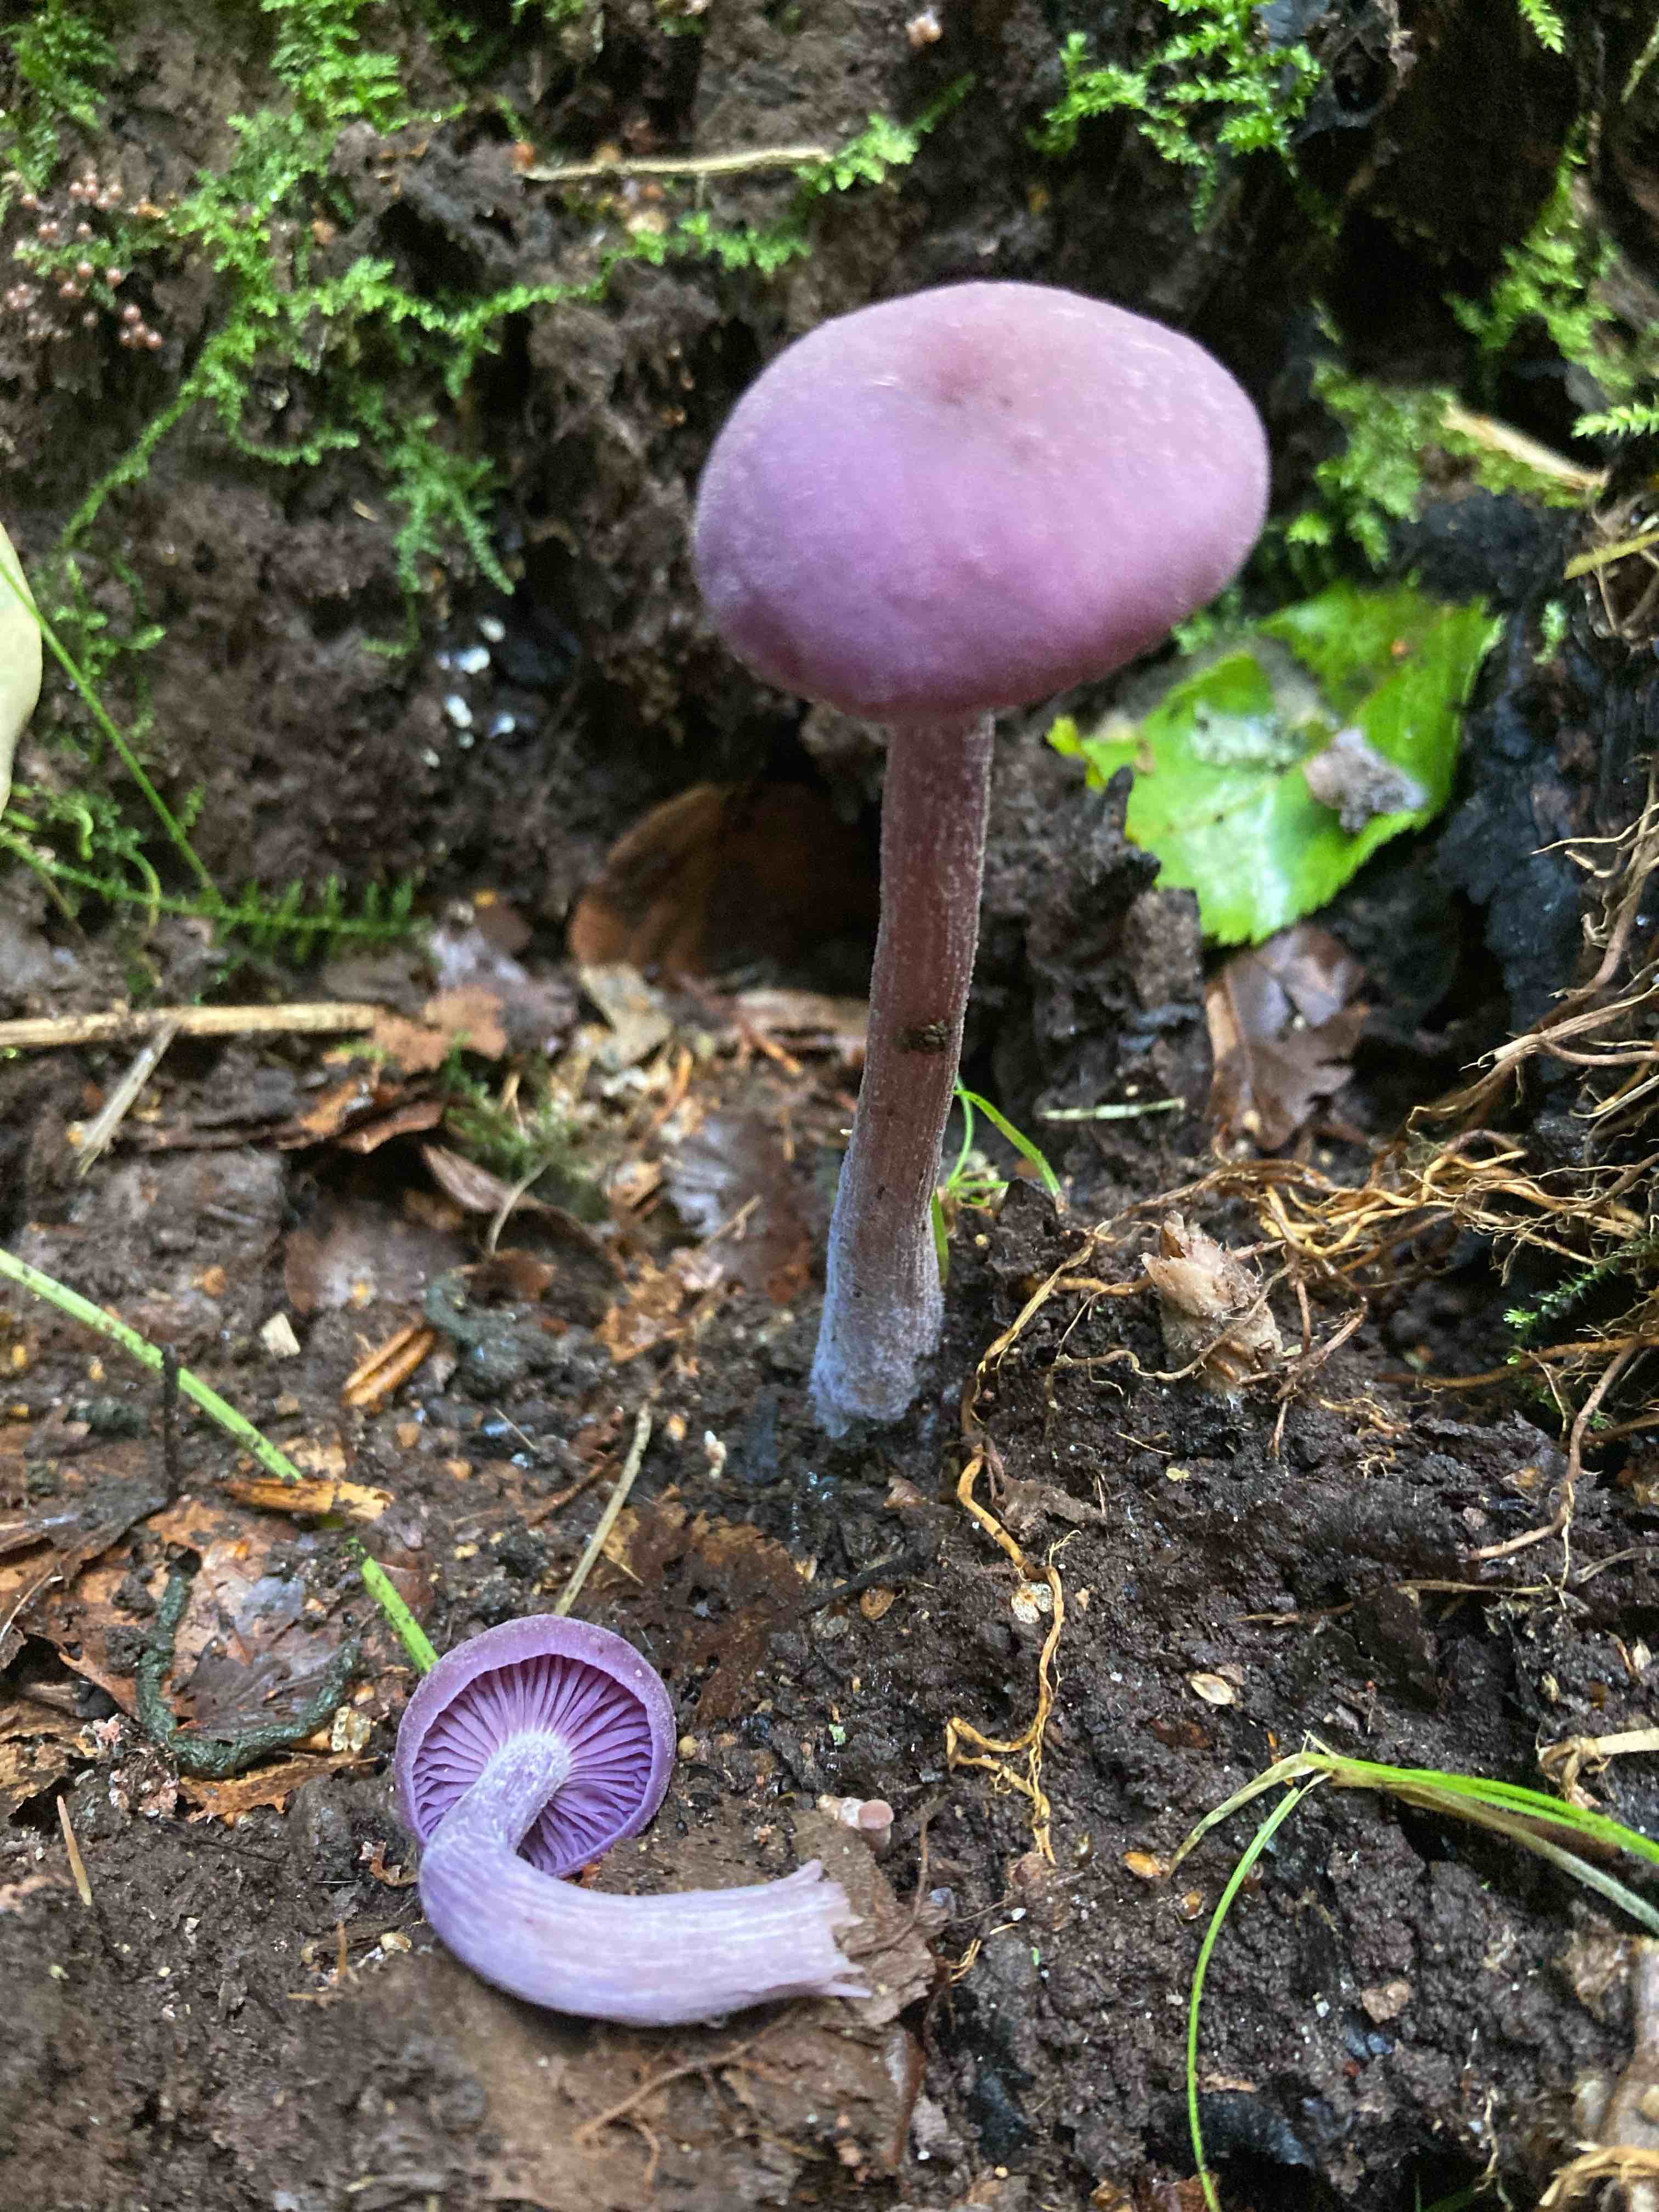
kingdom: Fungi
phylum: Basidiomycota
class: Agaricomycetes
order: Agaricales
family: Hydnangiaceae
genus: Laccaria
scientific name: Laccaria amethystina
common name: violet ametysthat
